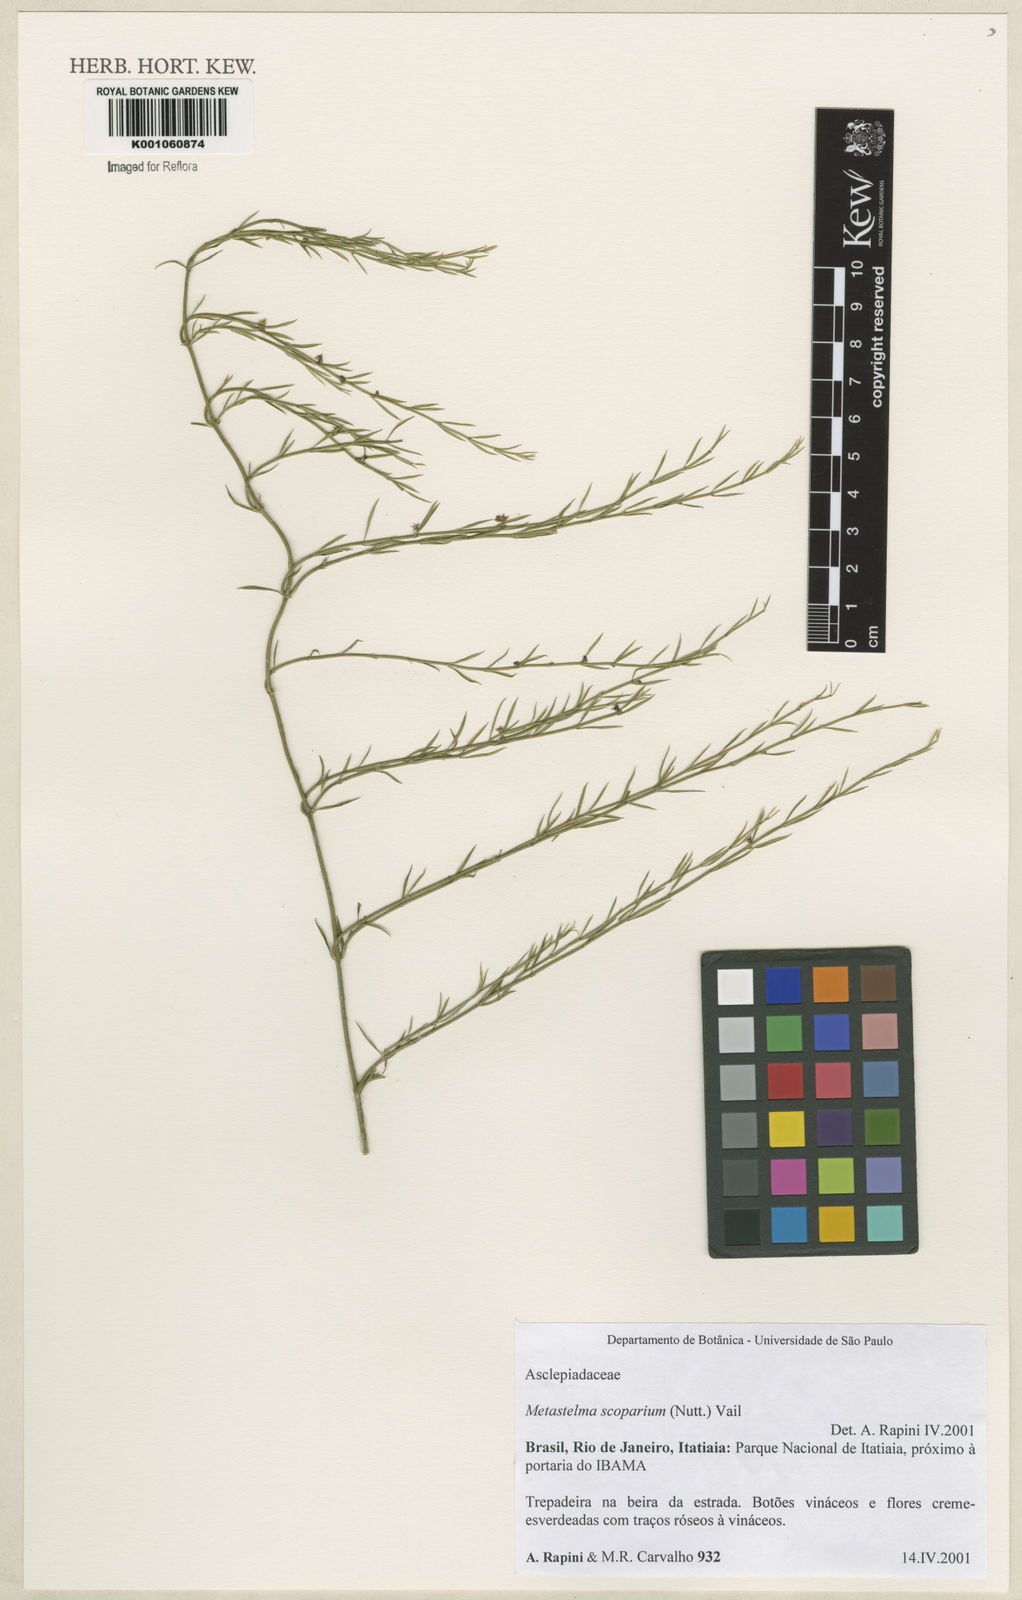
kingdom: Plantae
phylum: Tracheophyta
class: Magnoliopsida
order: Gentianales
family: Apocynaceae
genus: Orthosia
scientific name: Orthosia scoparia
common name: Leafless swallow-wort
